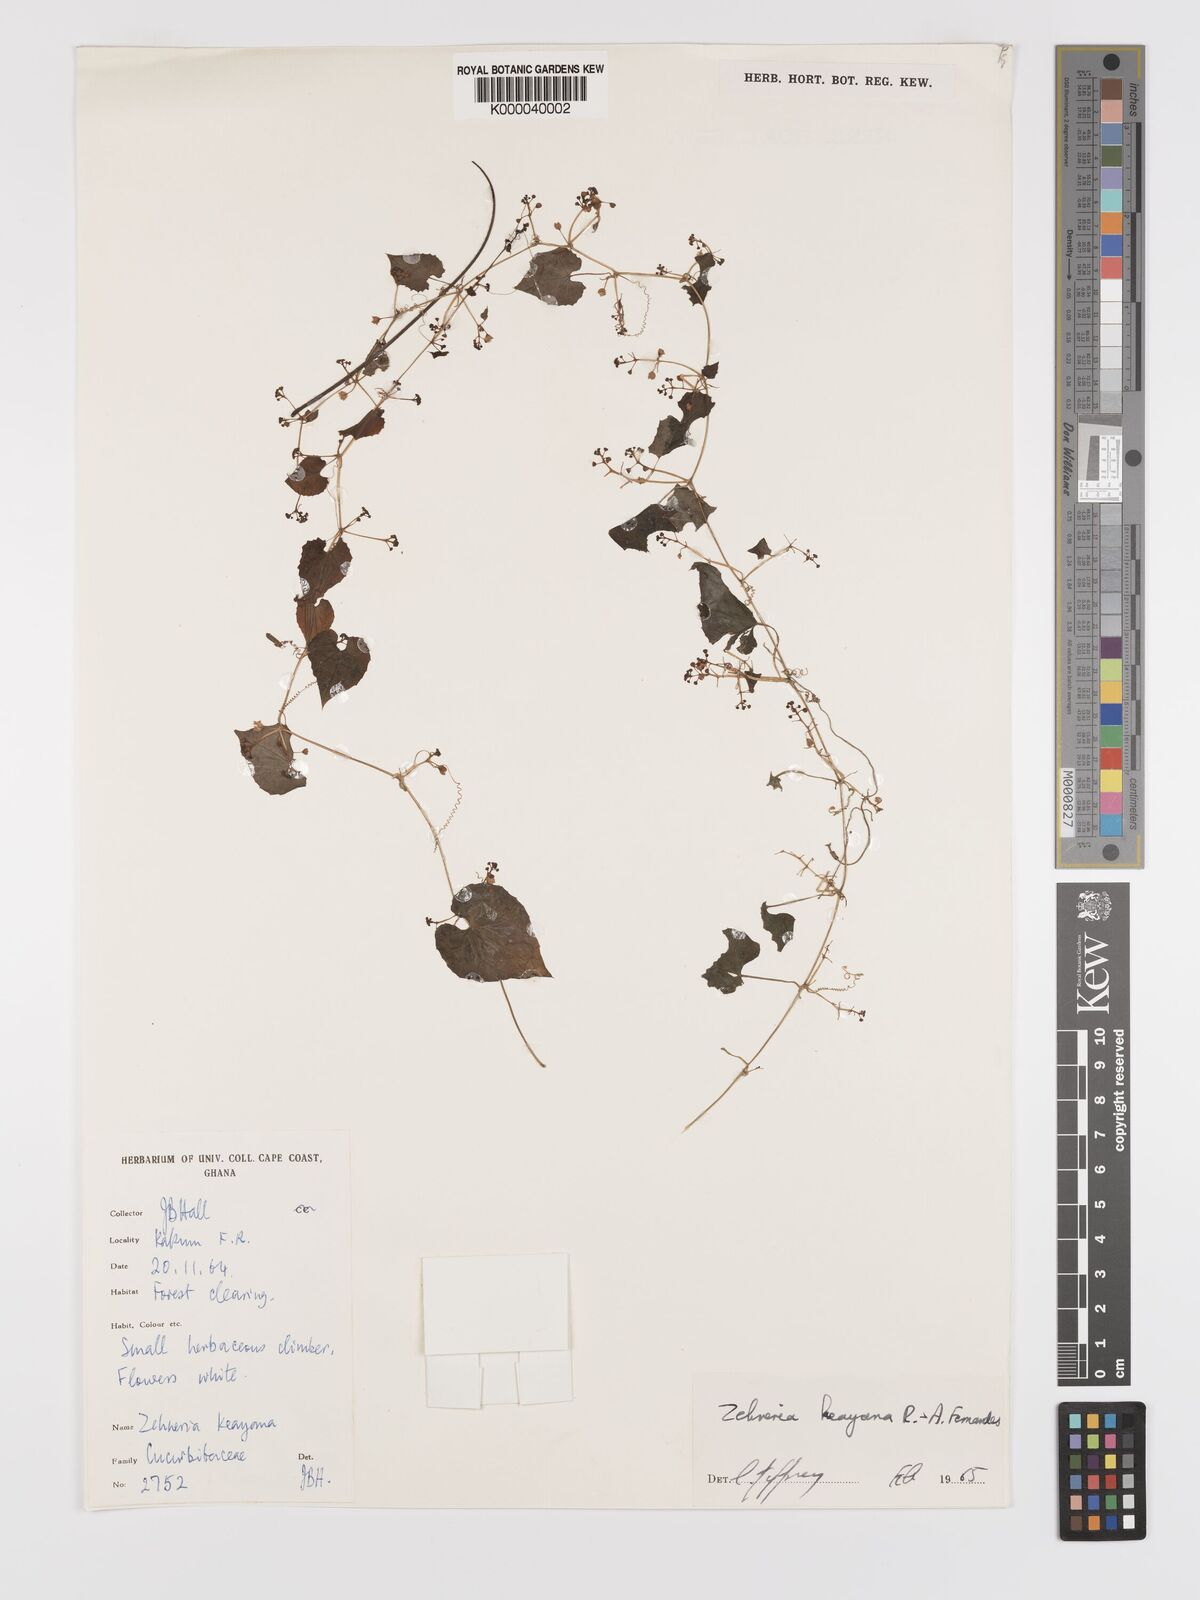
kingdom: Plantae
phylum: Tracheophyta
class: Magnoliopsida
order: Cucurbitales
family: Cucurbitaceae
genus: Zehneria
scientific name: Zehneria keayana
